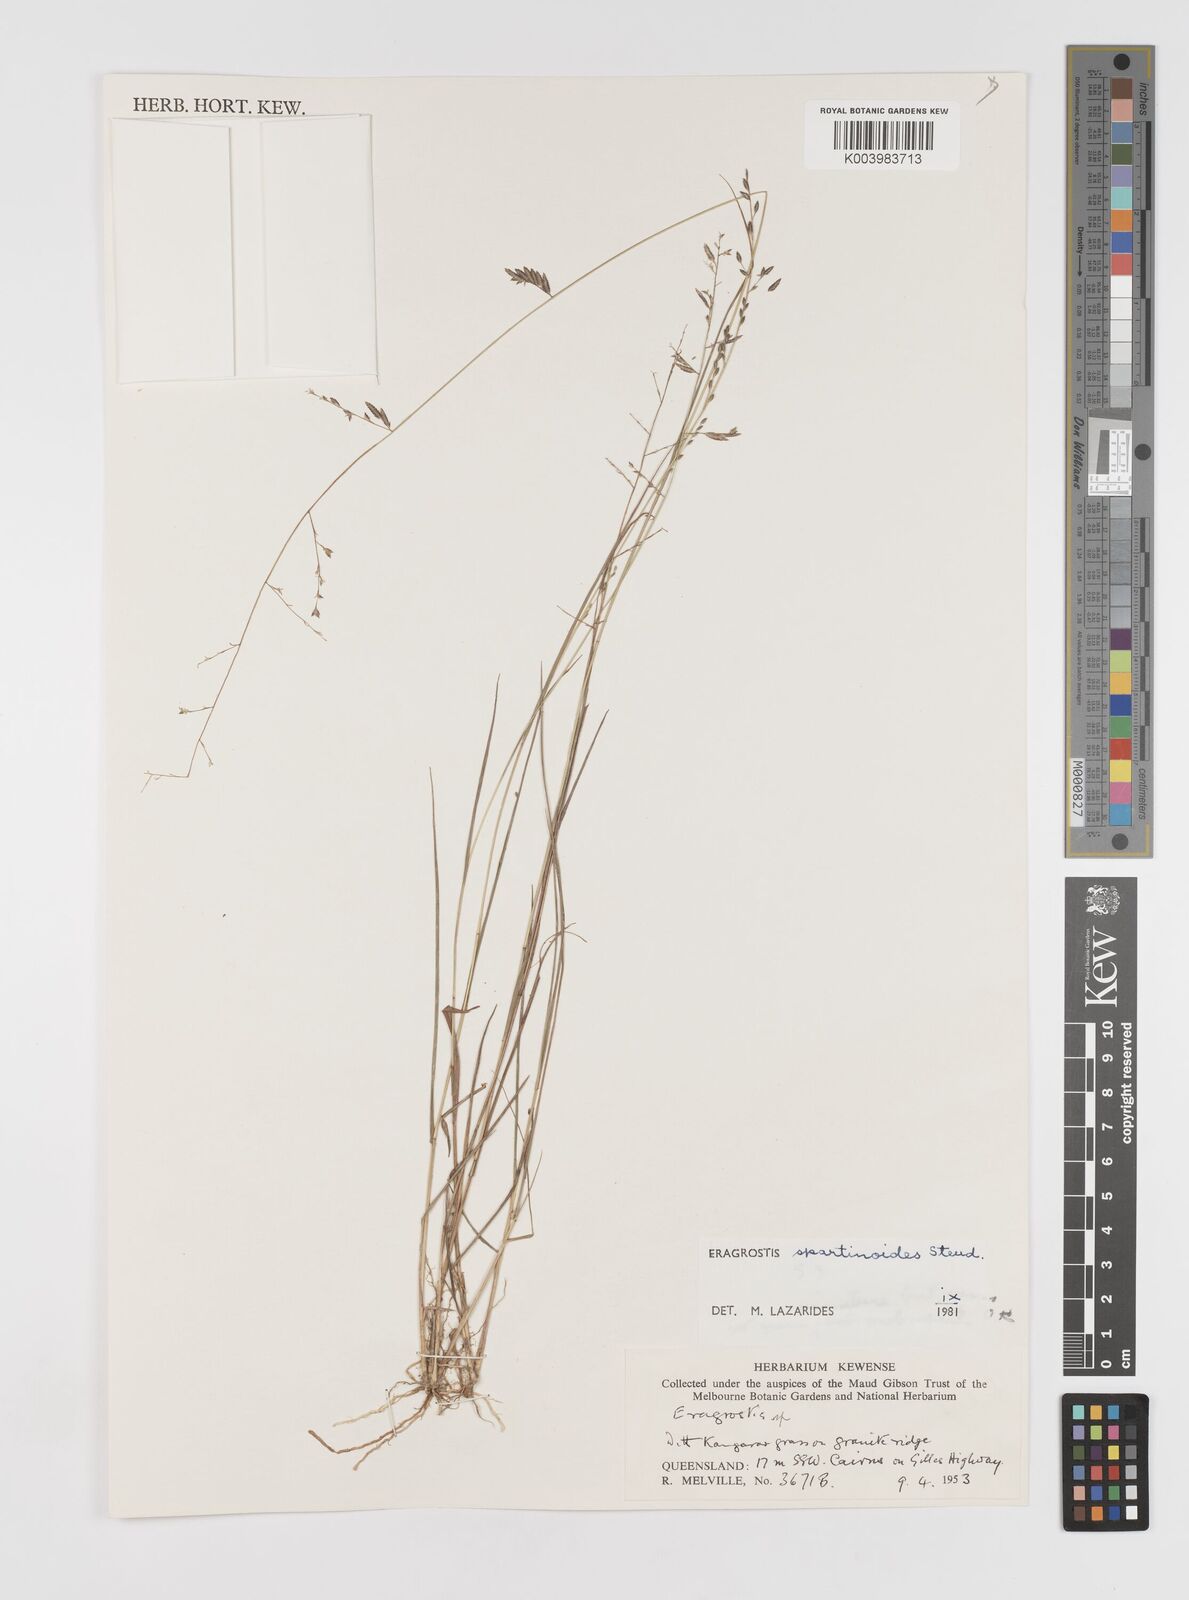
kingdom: Plantae
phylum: Tracheophyta
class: Liliopsida
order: Poales
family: Poaceae
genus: Eragrostis
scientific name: Eragrostis brownii
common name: Lovegrass
